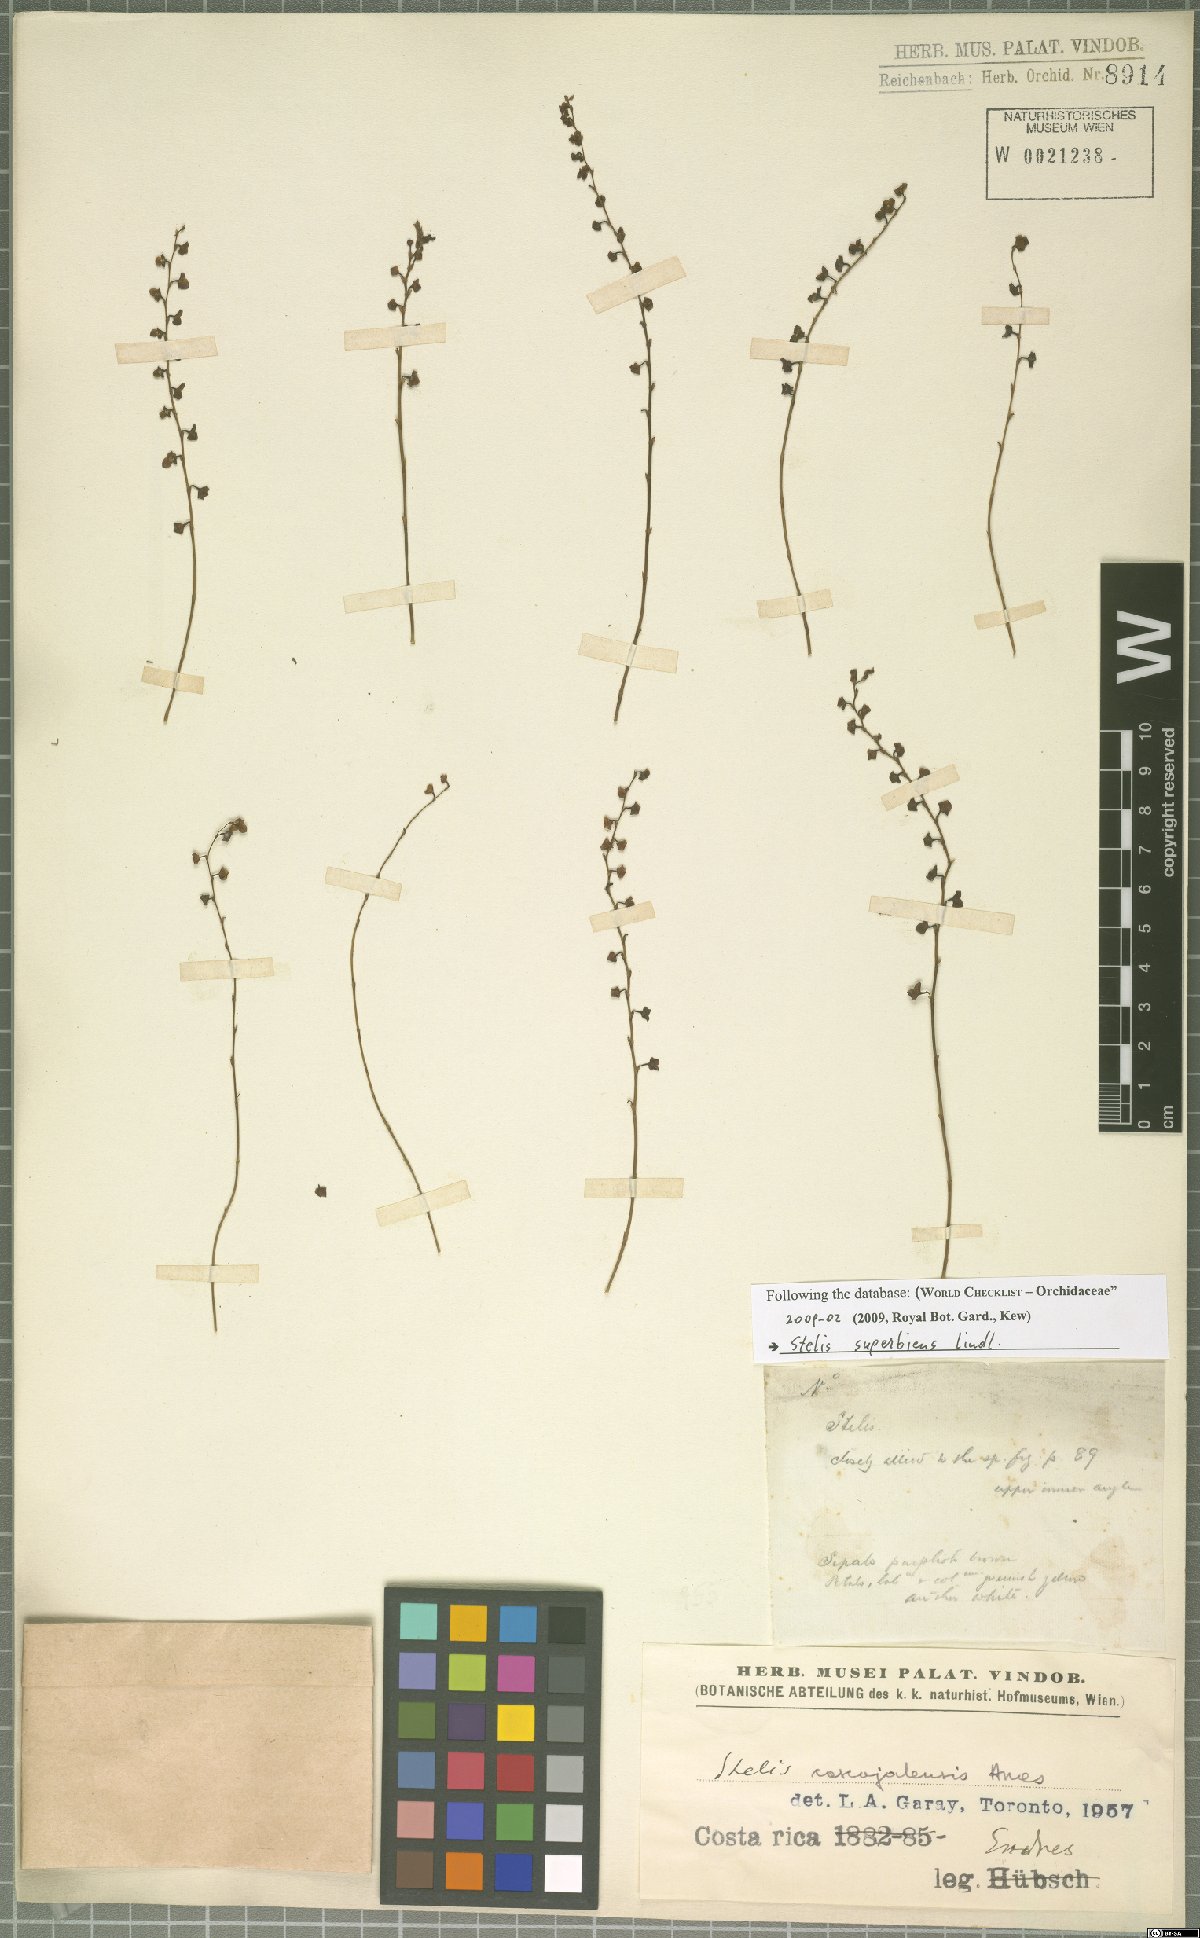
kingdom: Plantae
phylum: Tracheophyta
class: Liliopsida
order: Asparagales
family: Orchidaceae
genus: Stelis
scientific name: Stelis superbiens
